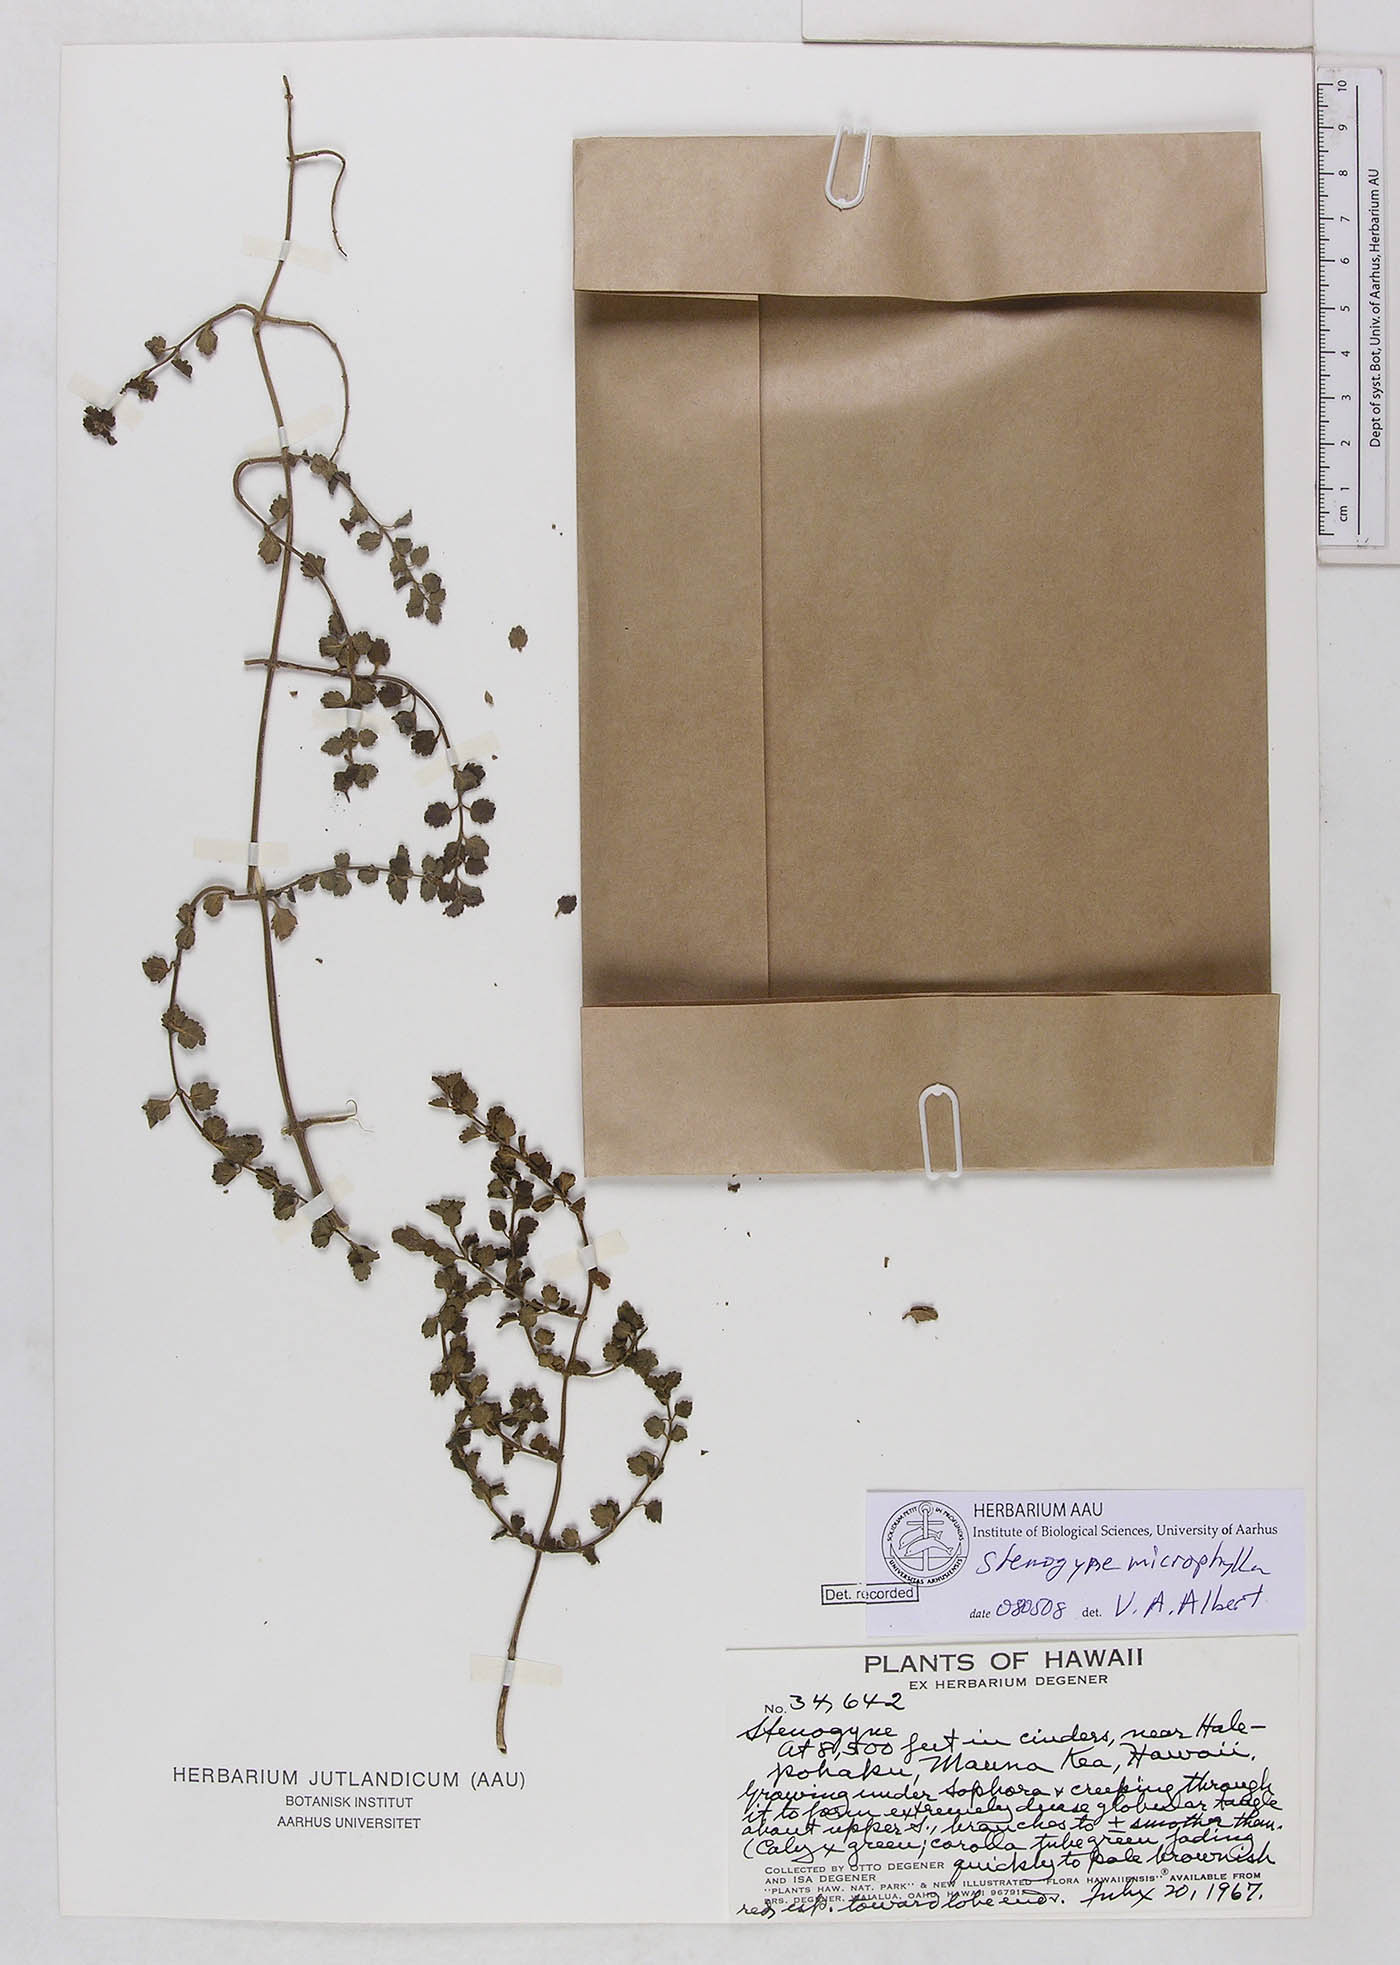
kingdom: Plantae
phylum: Tracheophyta
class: Magnoliopsida
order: Lamiales
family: Lamiaceae
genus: Stenogyne
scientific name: Stenogyne microphylla
